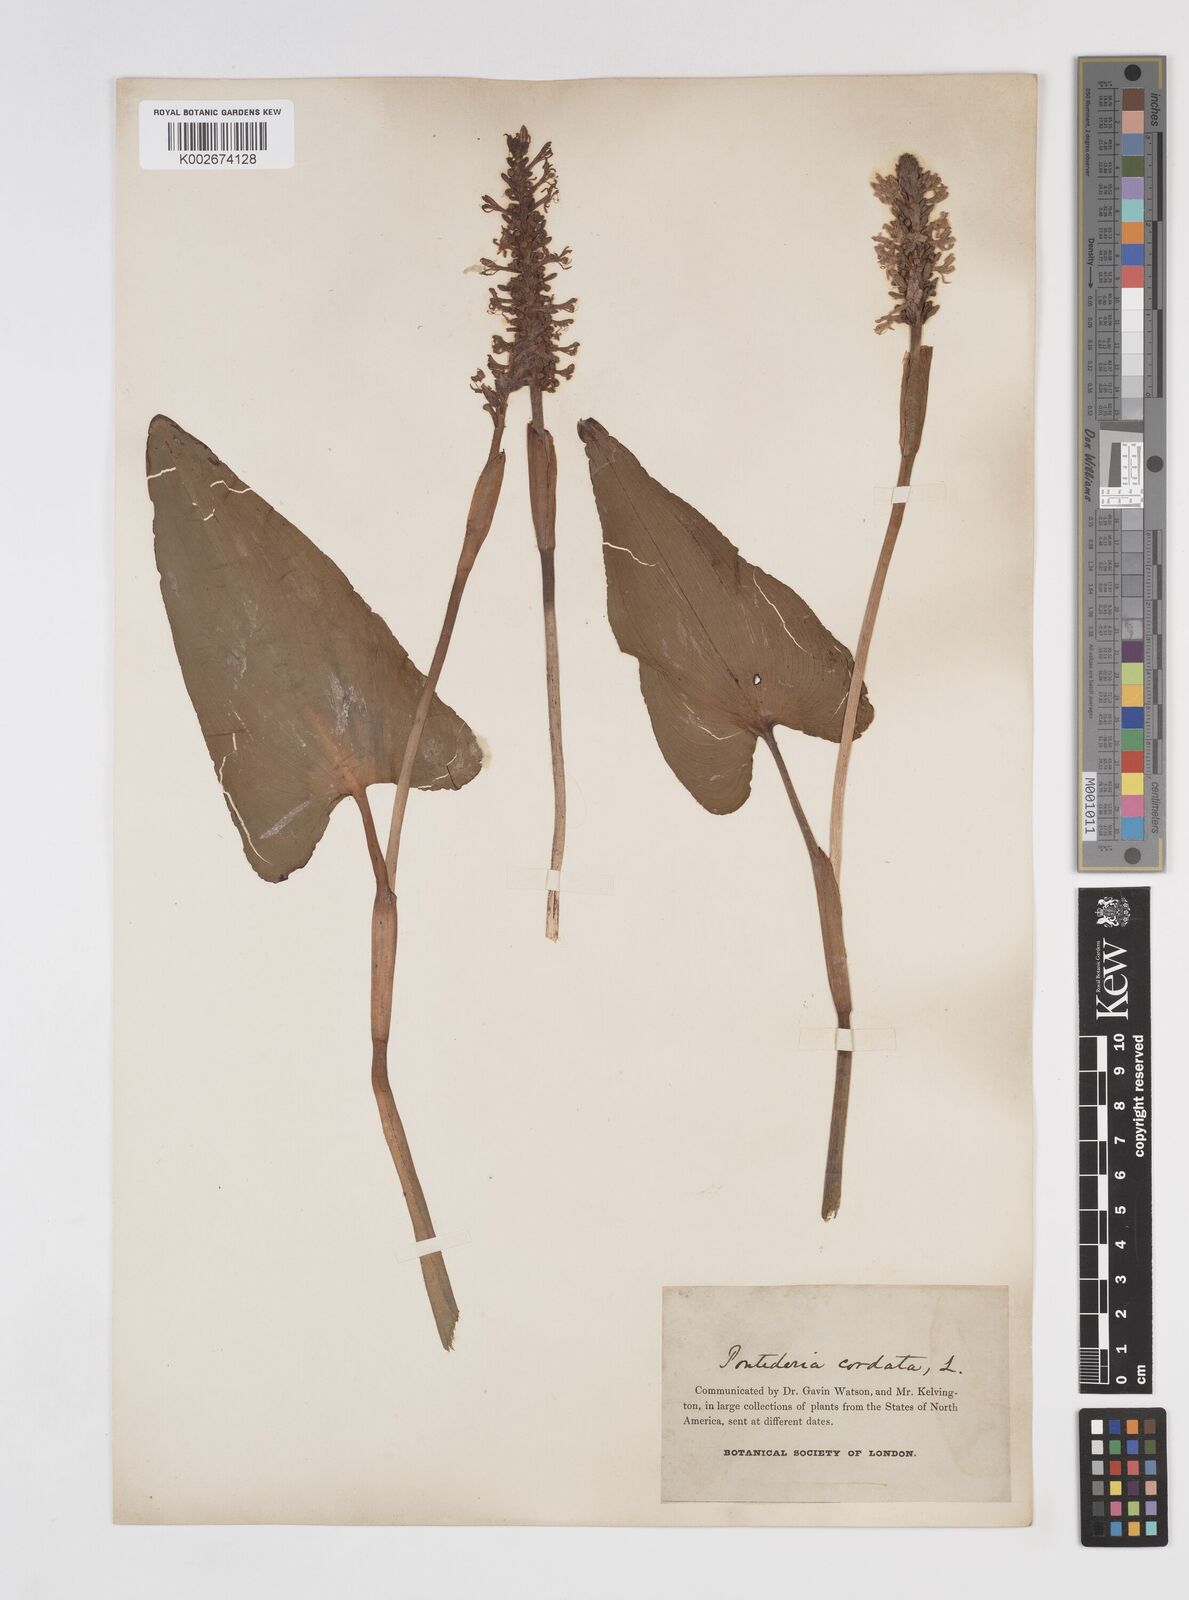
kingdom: Plantae
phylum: Tracheophyta
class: Liliopsida
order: Commelinales
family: Pontederiaceae
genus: Pontederia
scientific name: Pontederia cordata
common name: Pickerelweed
